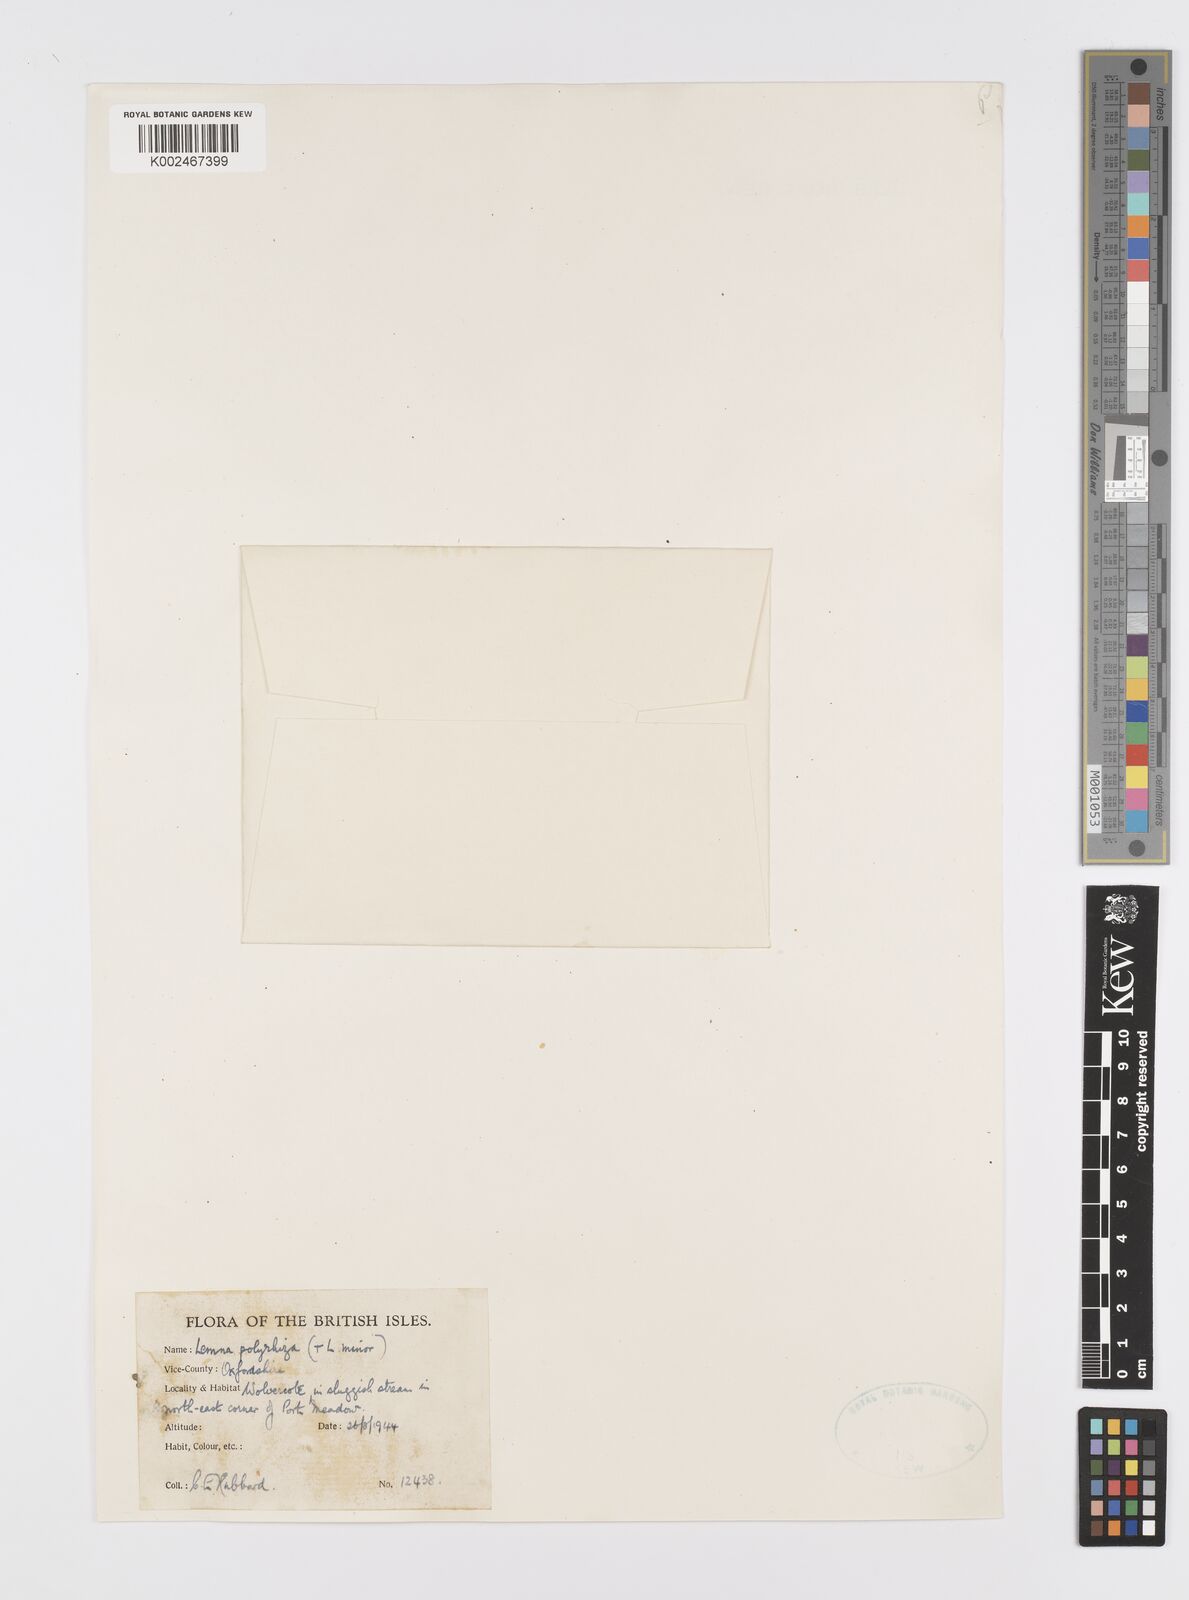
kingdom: Plantae
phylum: Tracheophyta
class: Liliopsida
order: Alismatales
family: Araceae
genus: Spirodela
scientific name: Spirodela polyrhiza
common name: Great duckweed
